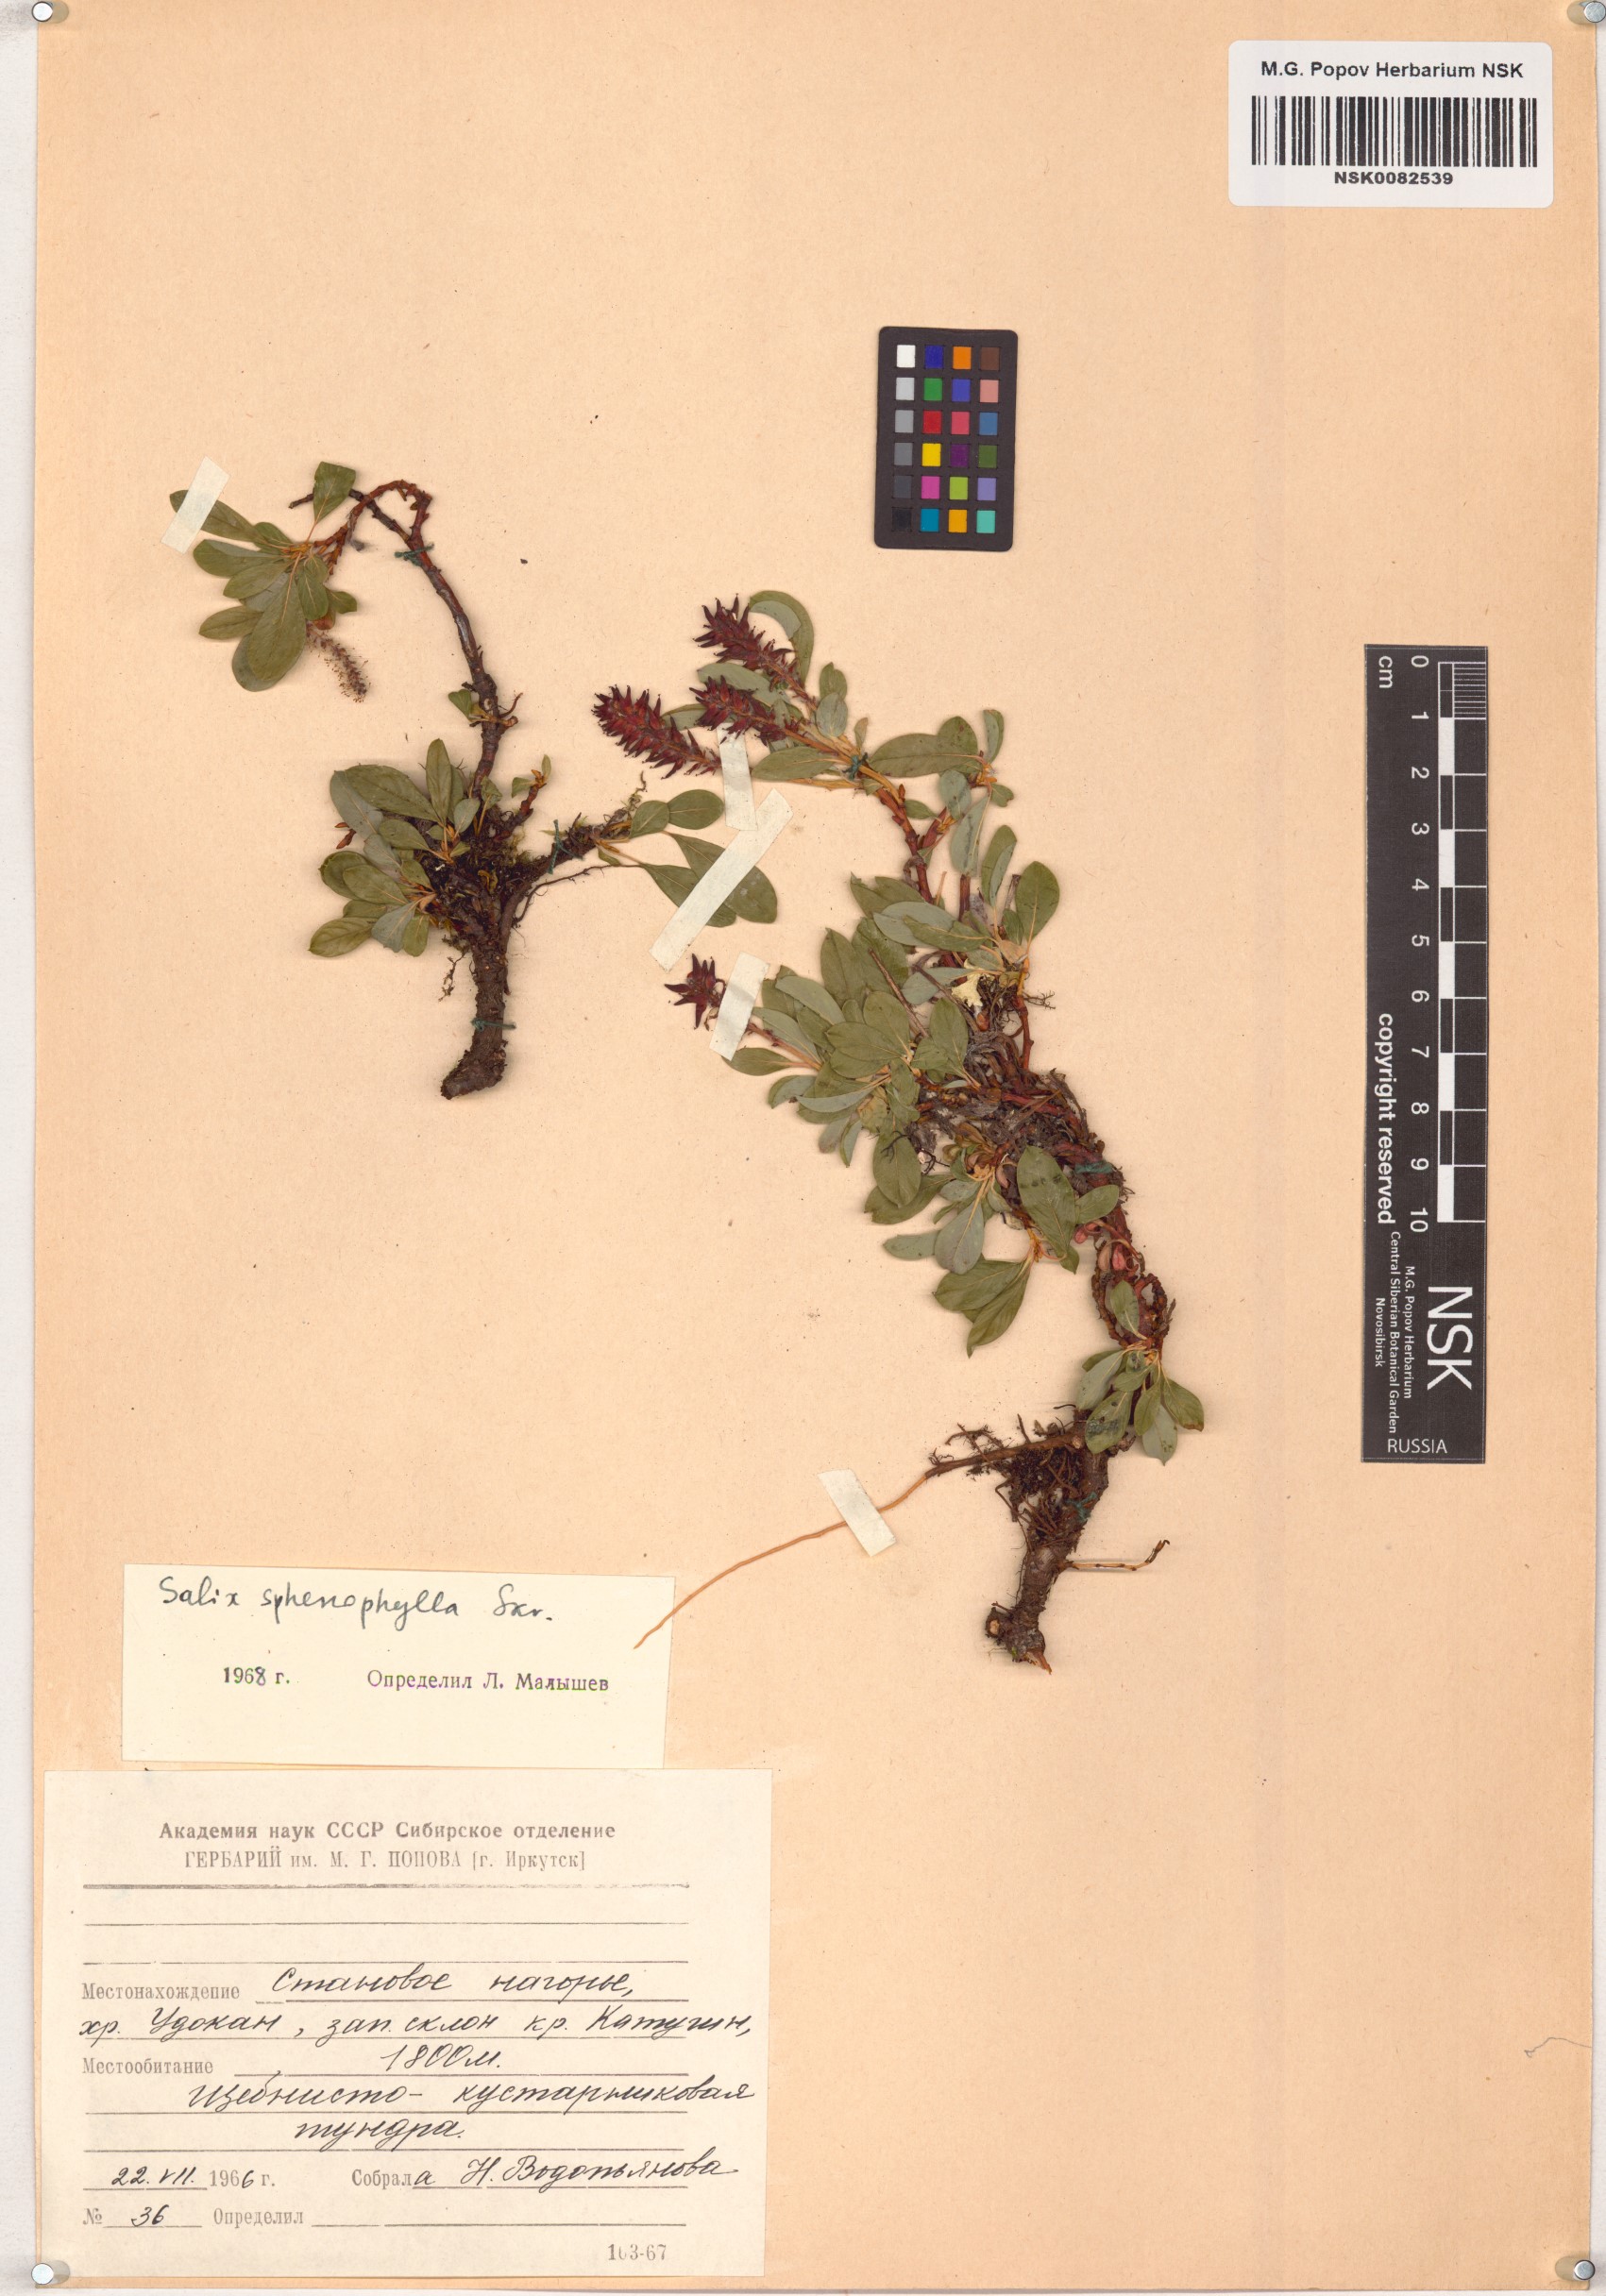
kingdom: Plantae
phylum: Tracheophyta
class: Magnoliopsida
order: Malpighiales
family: Salicaceae
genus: Salix
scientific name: Salix sphenophylla
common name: Wedge-leaved willow
